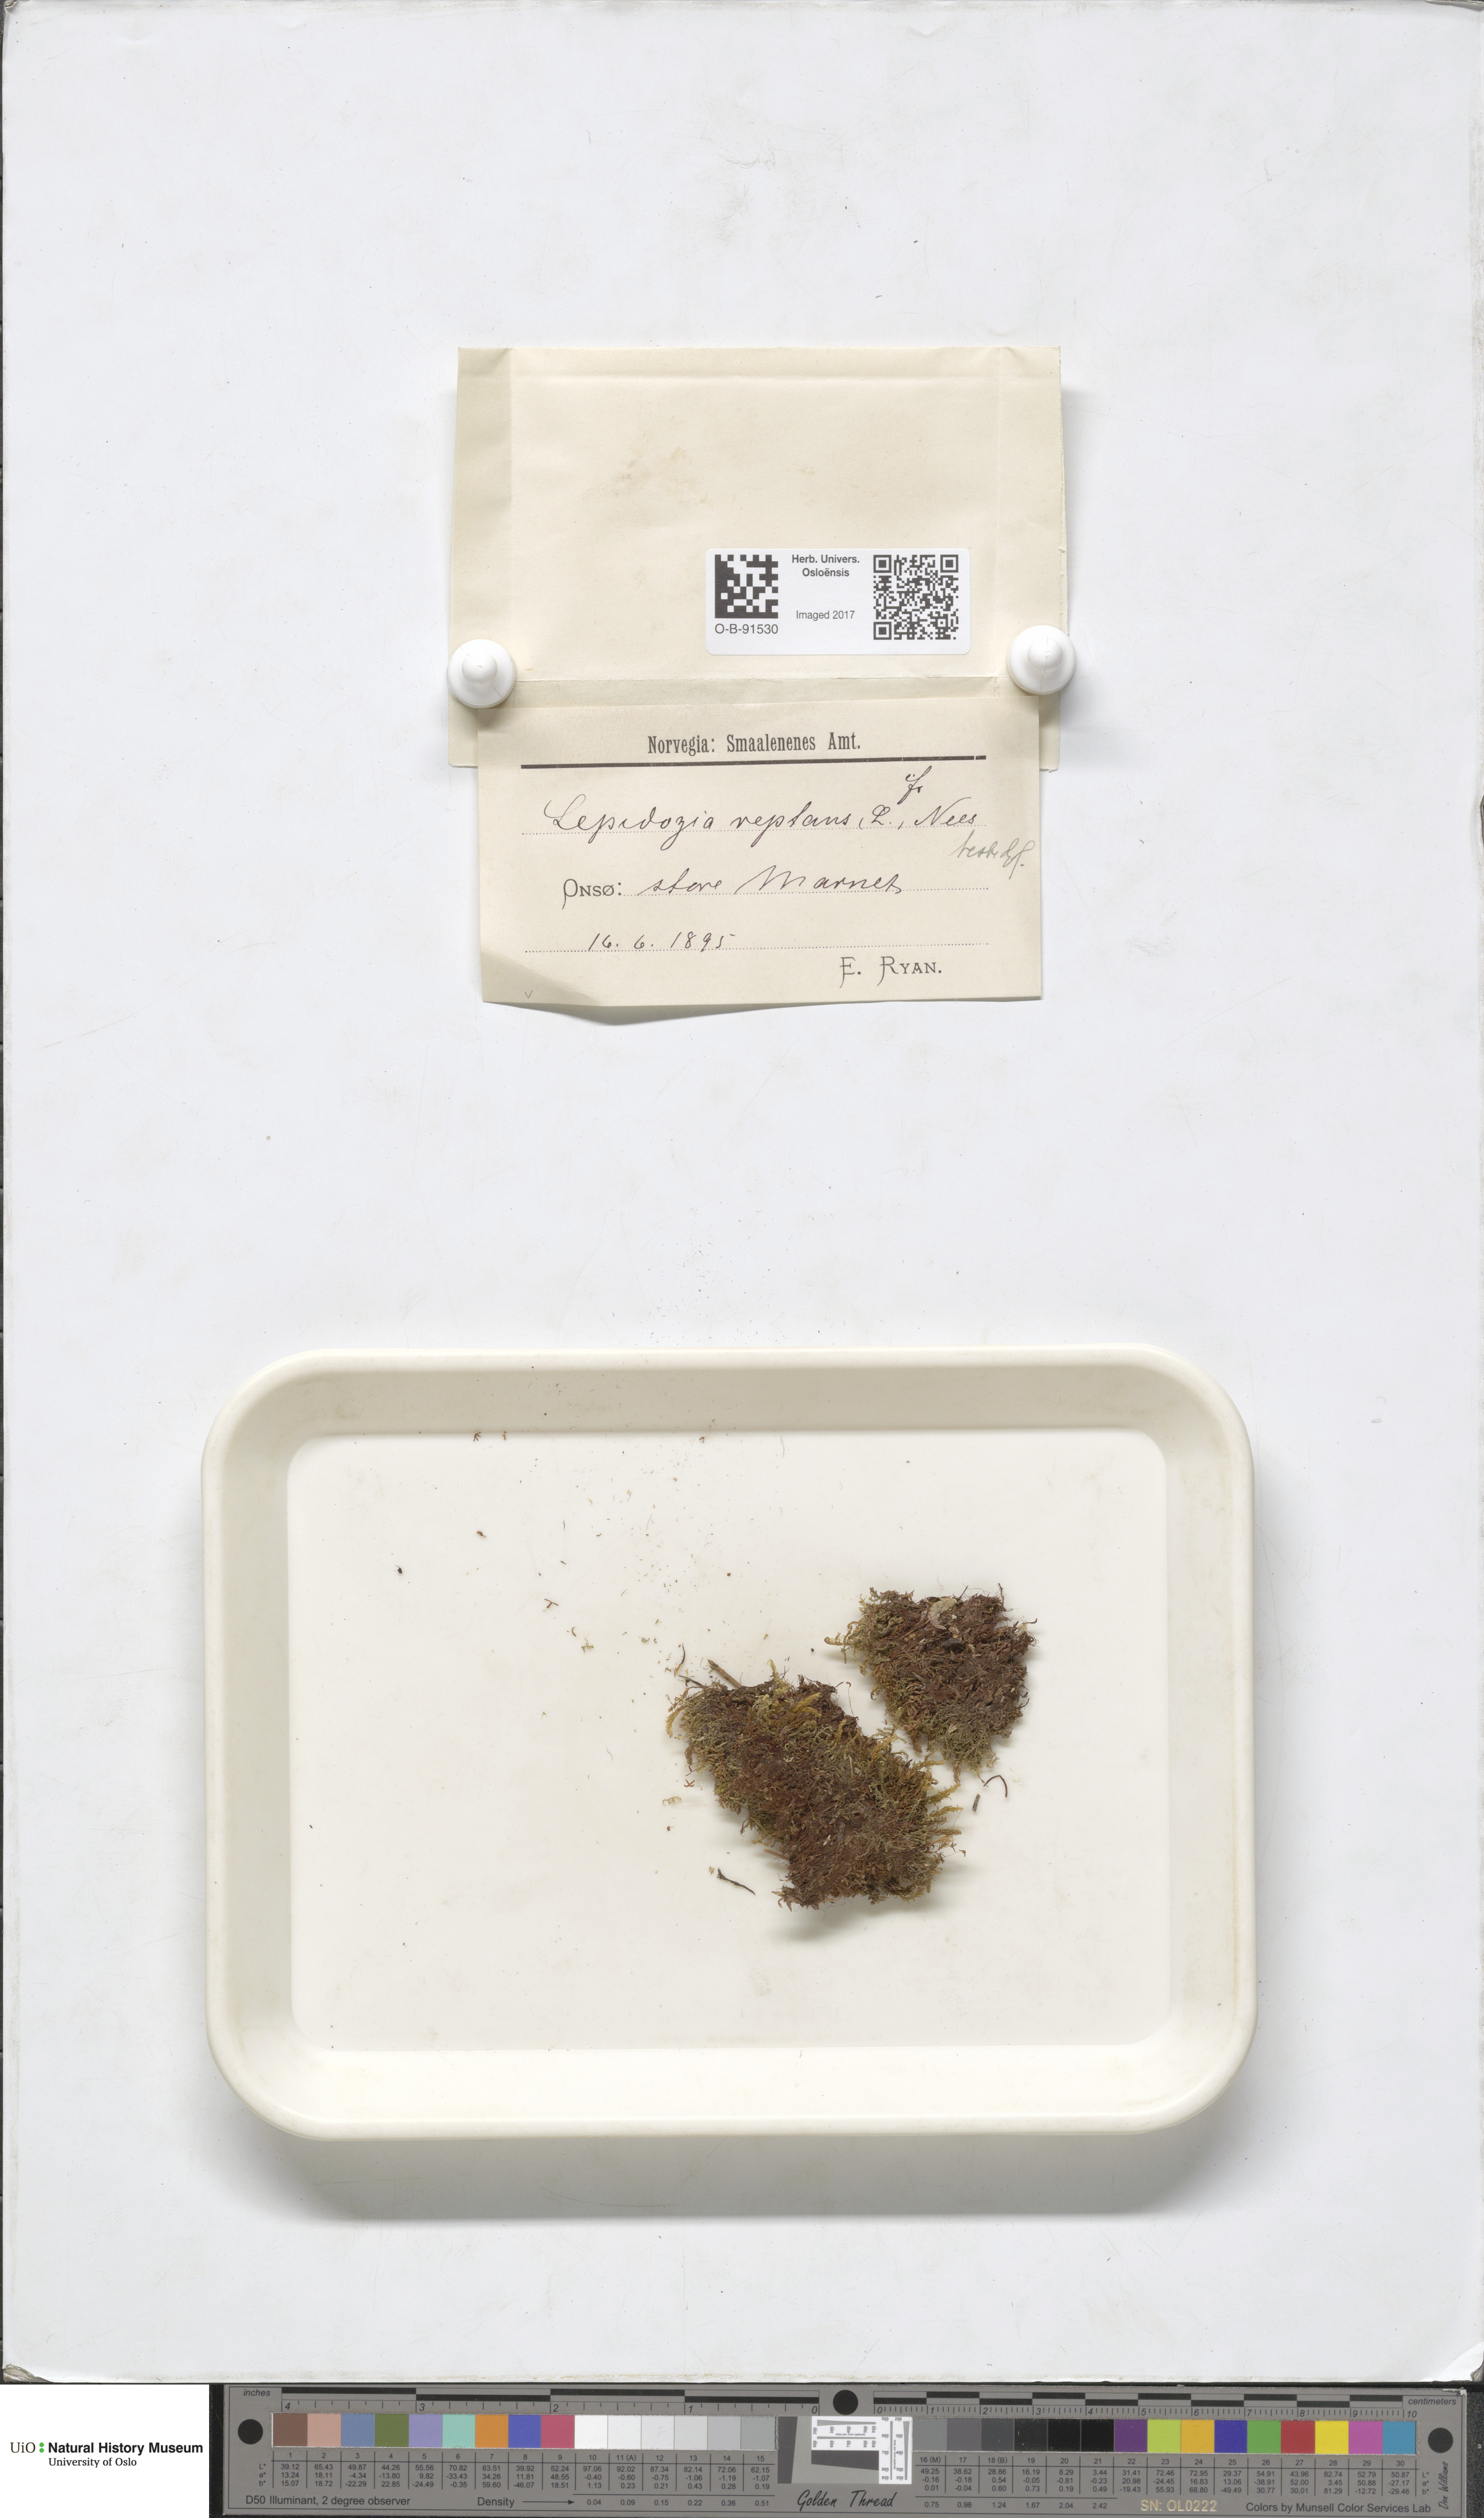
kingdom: Plantae
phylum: Marchantiophyta
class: Jungermanniopsida
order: Jungermanniales
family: Lepidoziaceae
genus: Lepidozia
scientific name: Lepidozia reptans
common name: Creeping fingerwort
